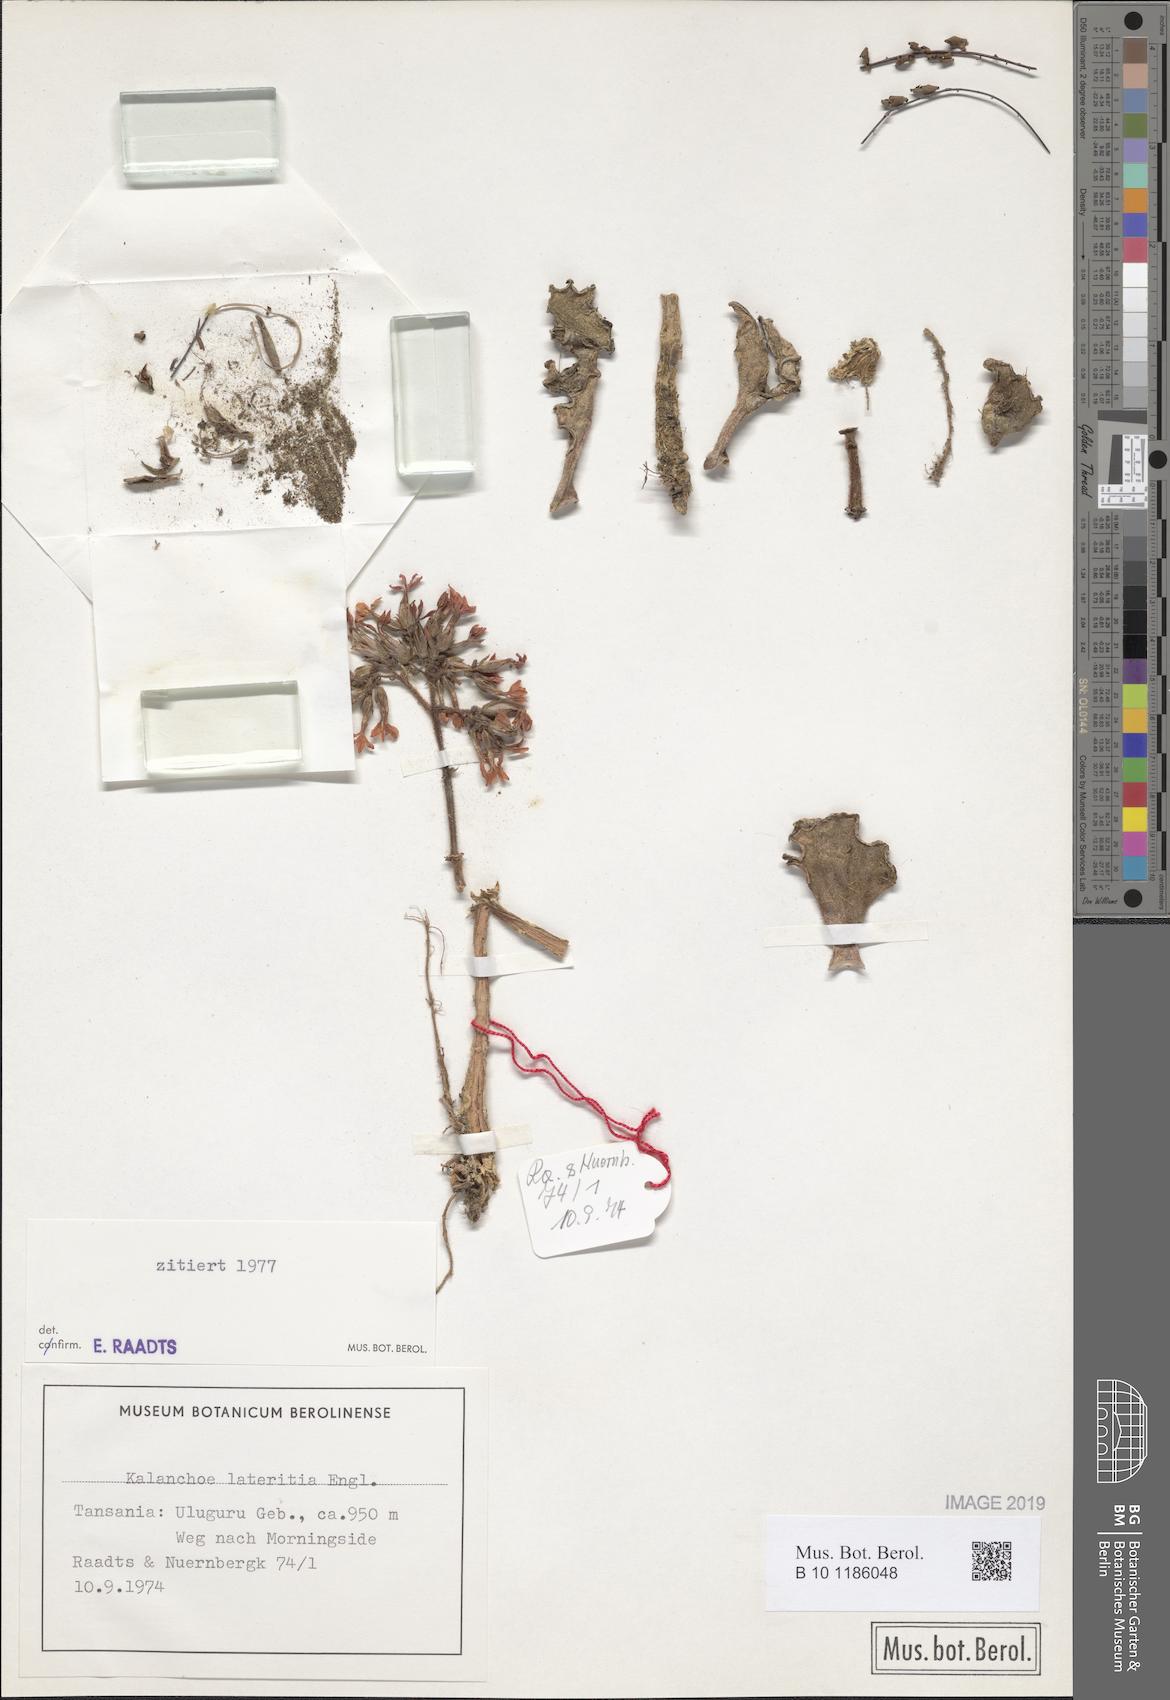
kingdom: Plantae
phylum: Tracheophyta
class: Magnoliopsida
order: Saxifragales
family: Crassulaceae
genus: Kalanchoe
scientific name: Kalanchoe lateritia
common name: Kalanchoe
